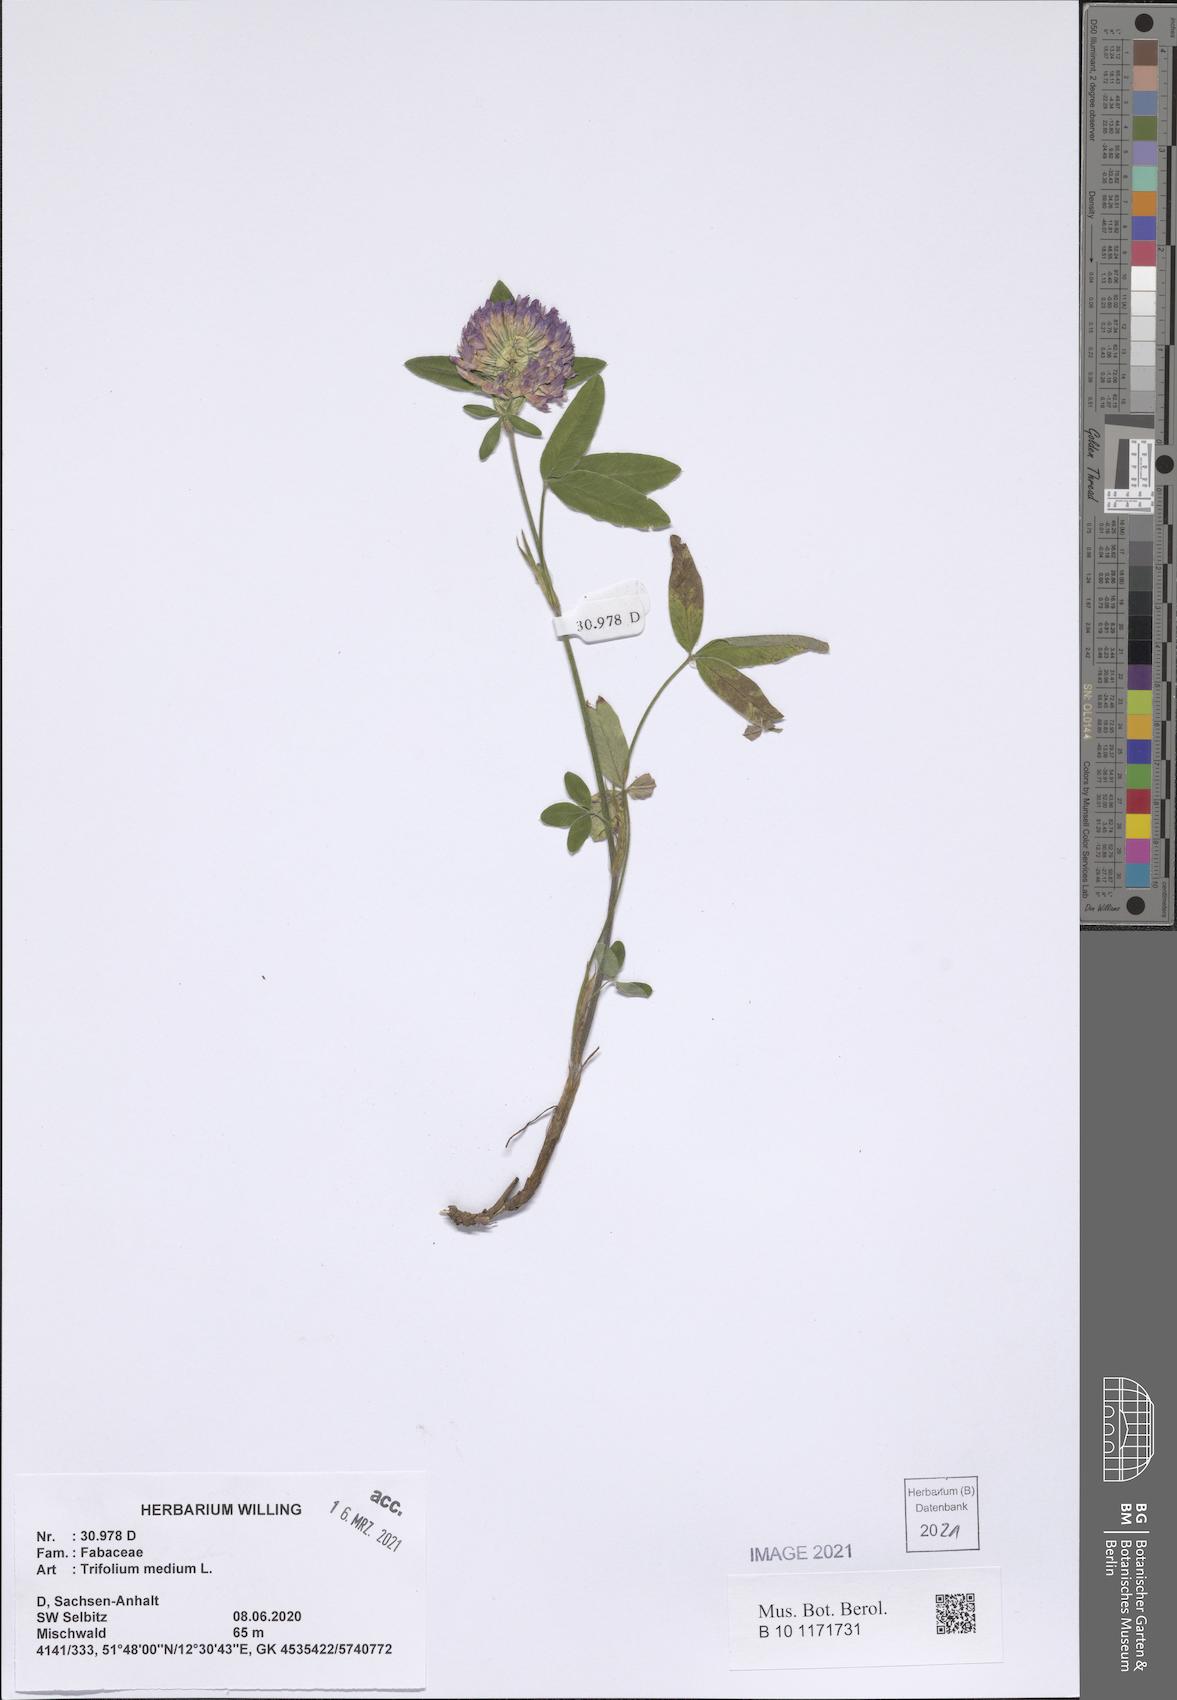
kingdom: Plantae
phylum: Tracheophyta
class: Magnoliopsida
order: Fabales
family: Fabaceae
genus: Trifolium
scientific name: Trifolium medium
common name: Zigzag clover
